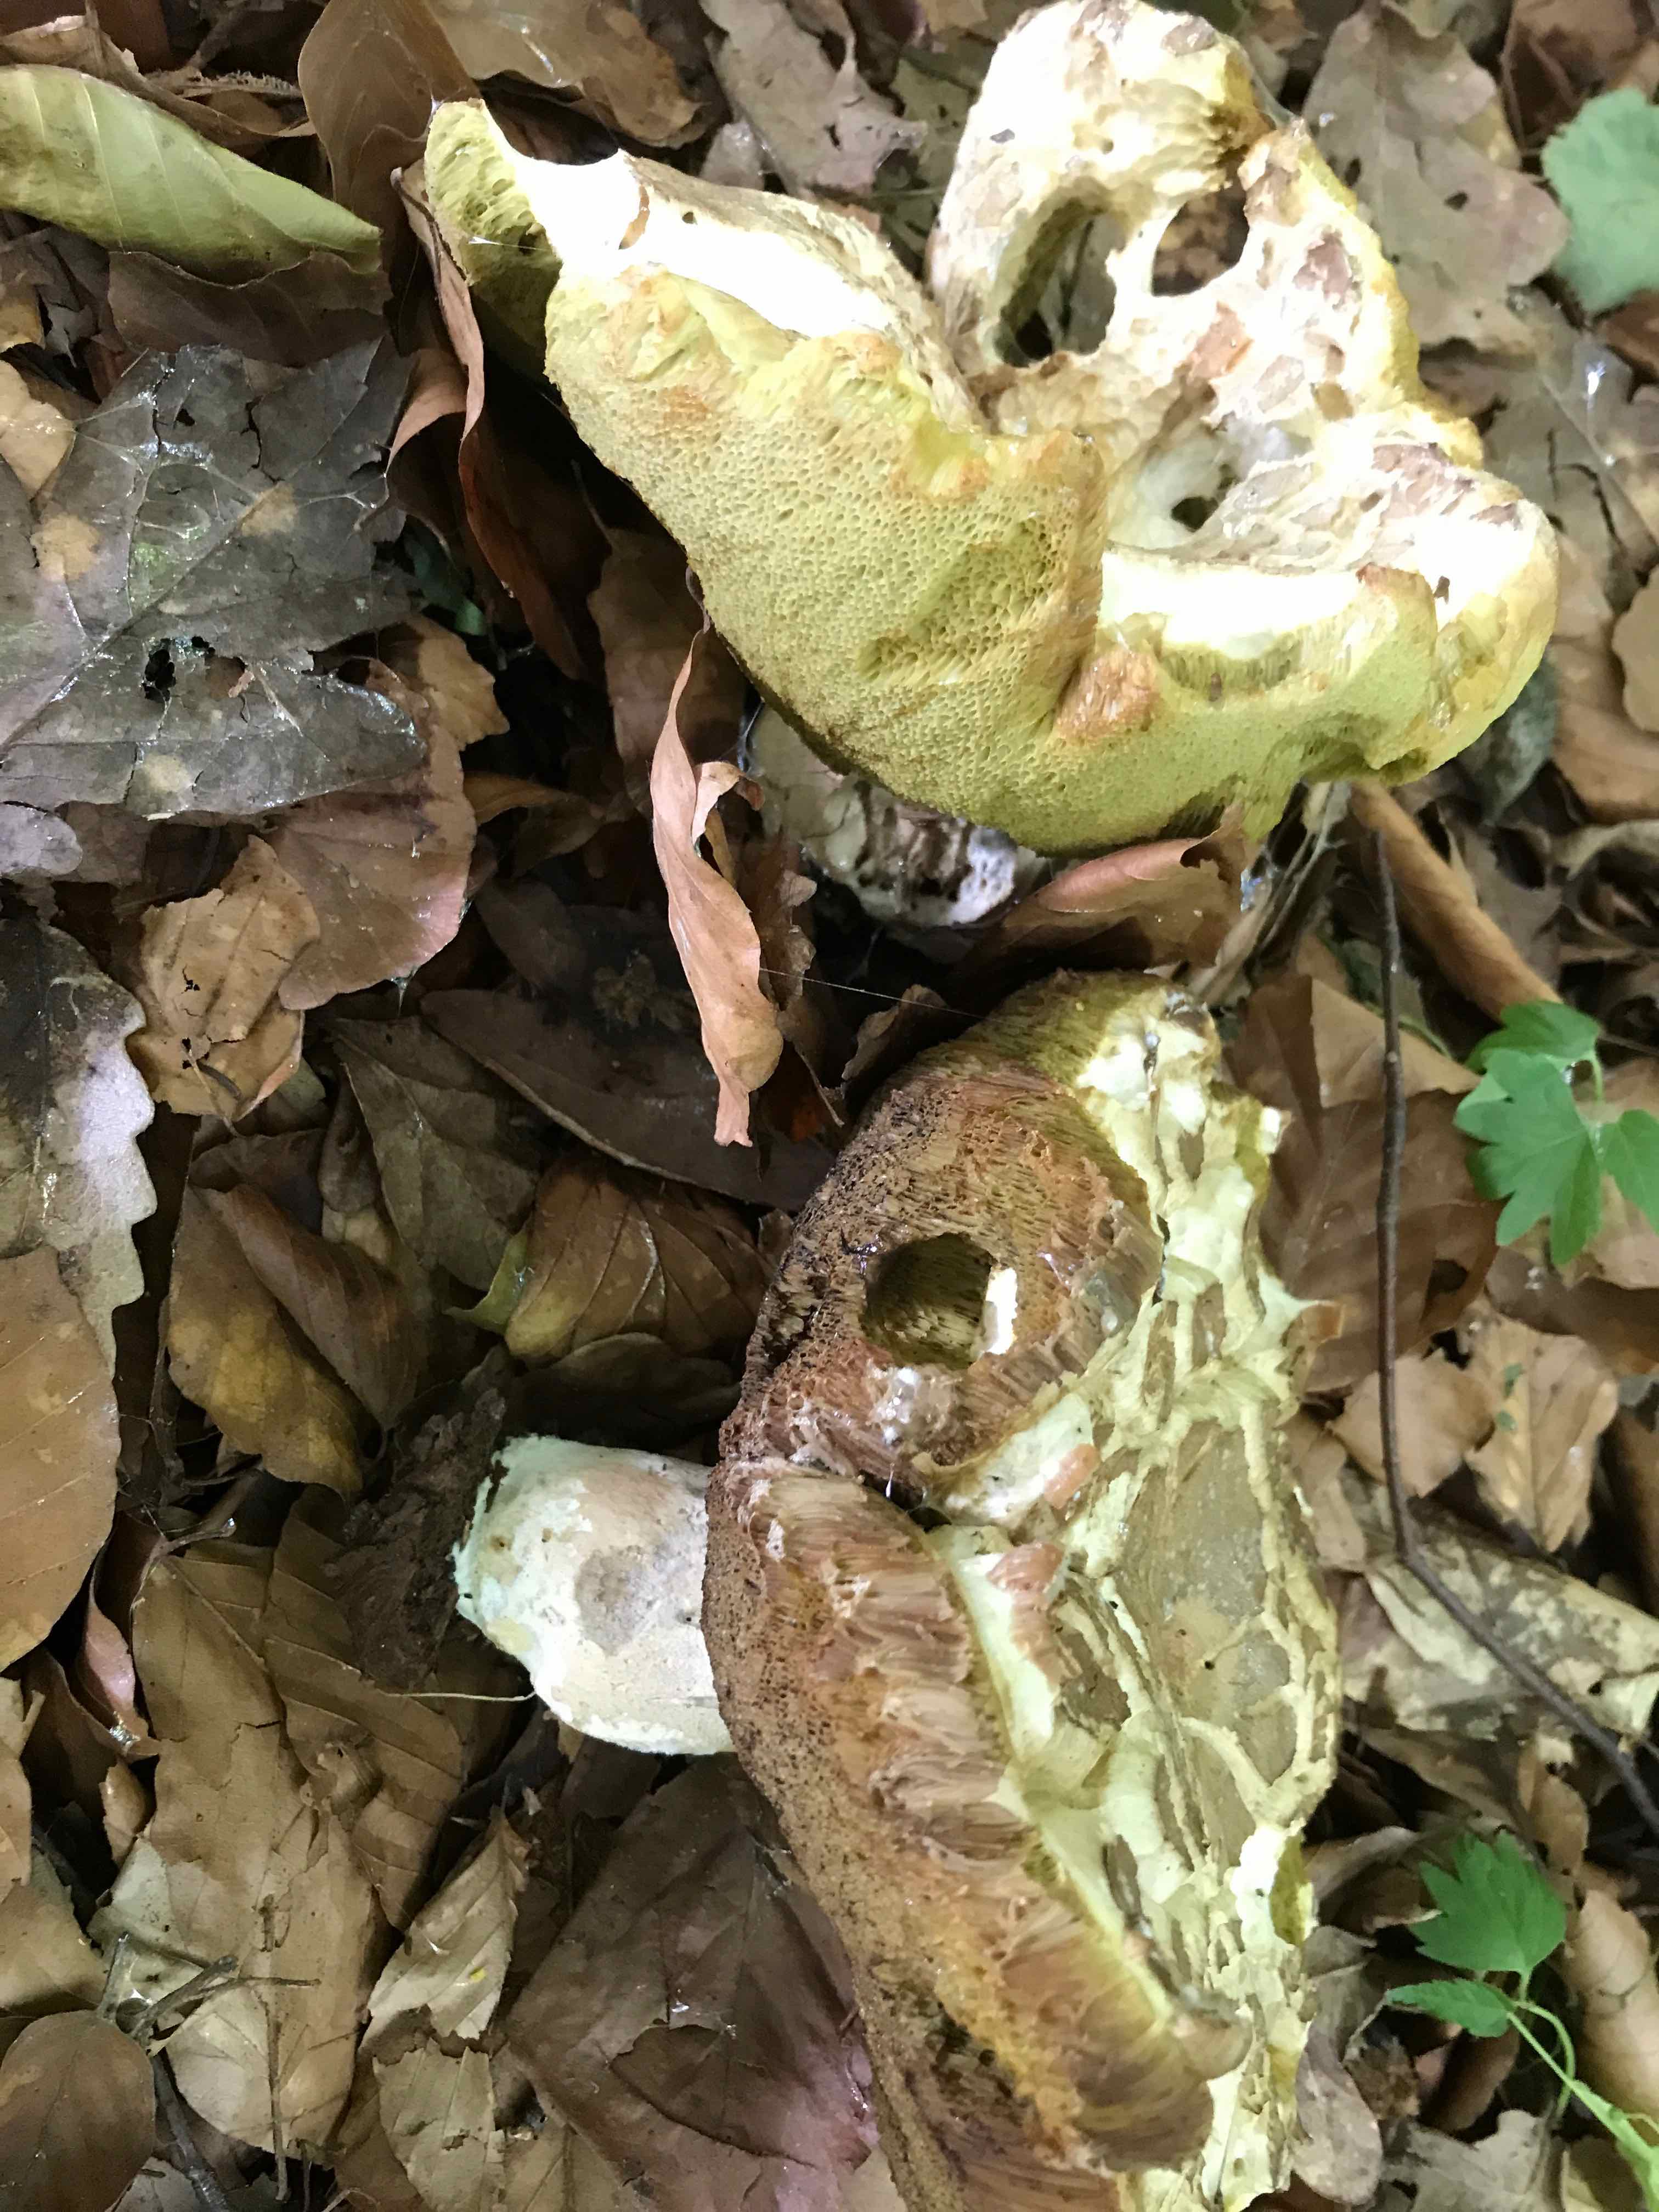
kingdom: Fungi
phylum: Basidiomycota
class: Agaricomycetes
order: Boletales
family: Boletaceae
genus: Boletus
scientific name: Boletus reticulatus
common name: sommer-rørhat
